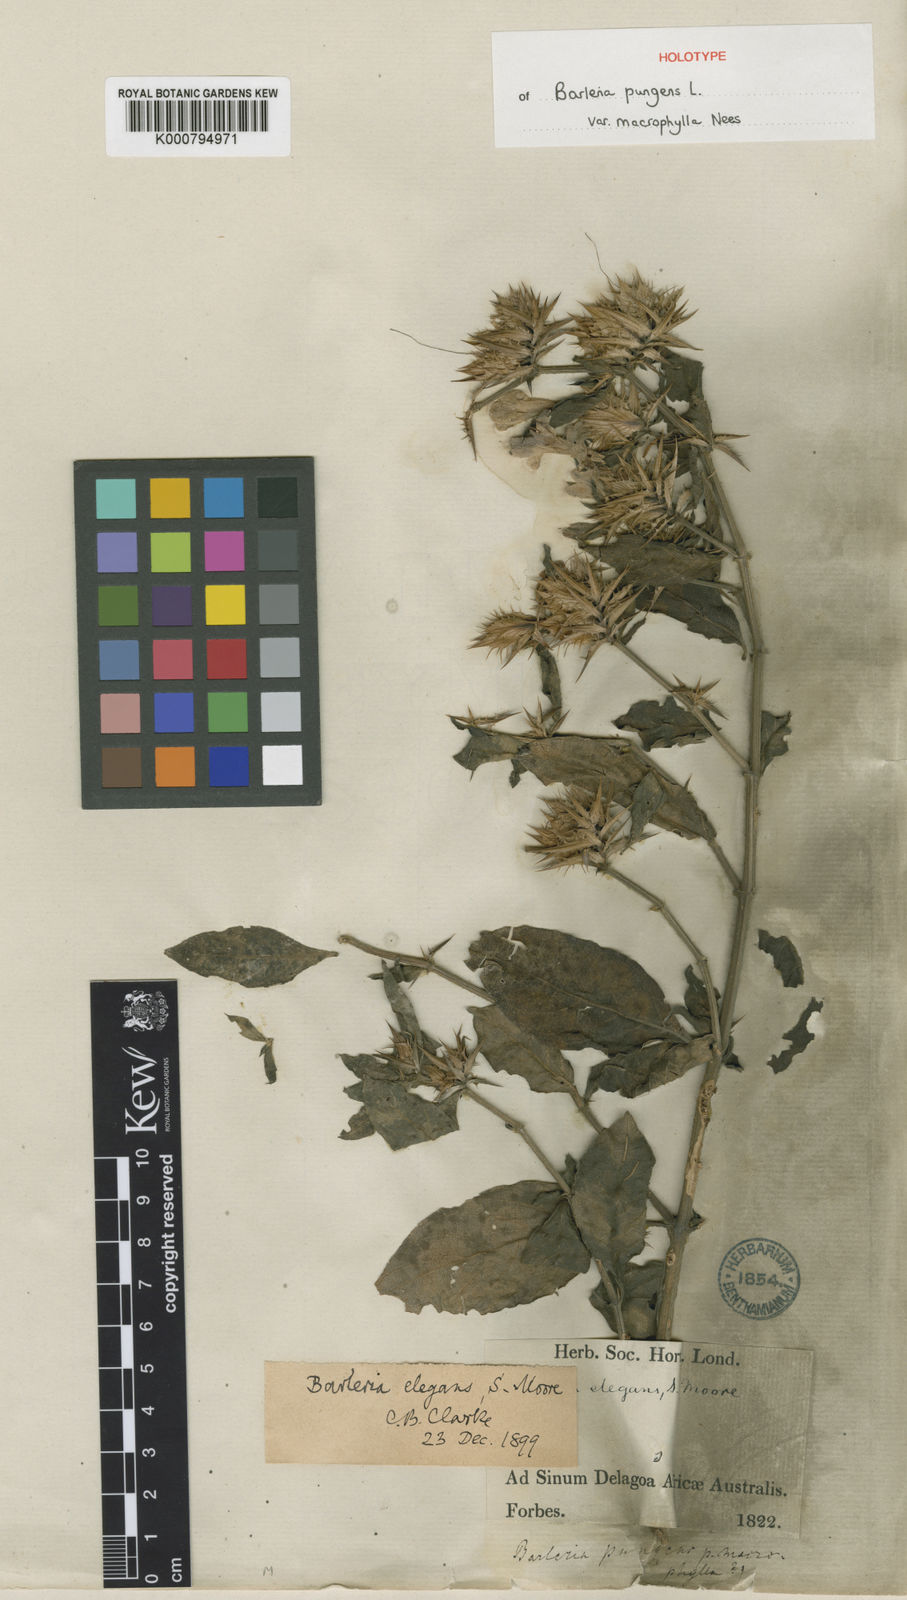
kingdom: Plantae
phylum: Tracheophyta
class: Magnoliopsida
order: Lamiales
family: Acanthaceae
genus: Barleria
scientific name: Barleria
